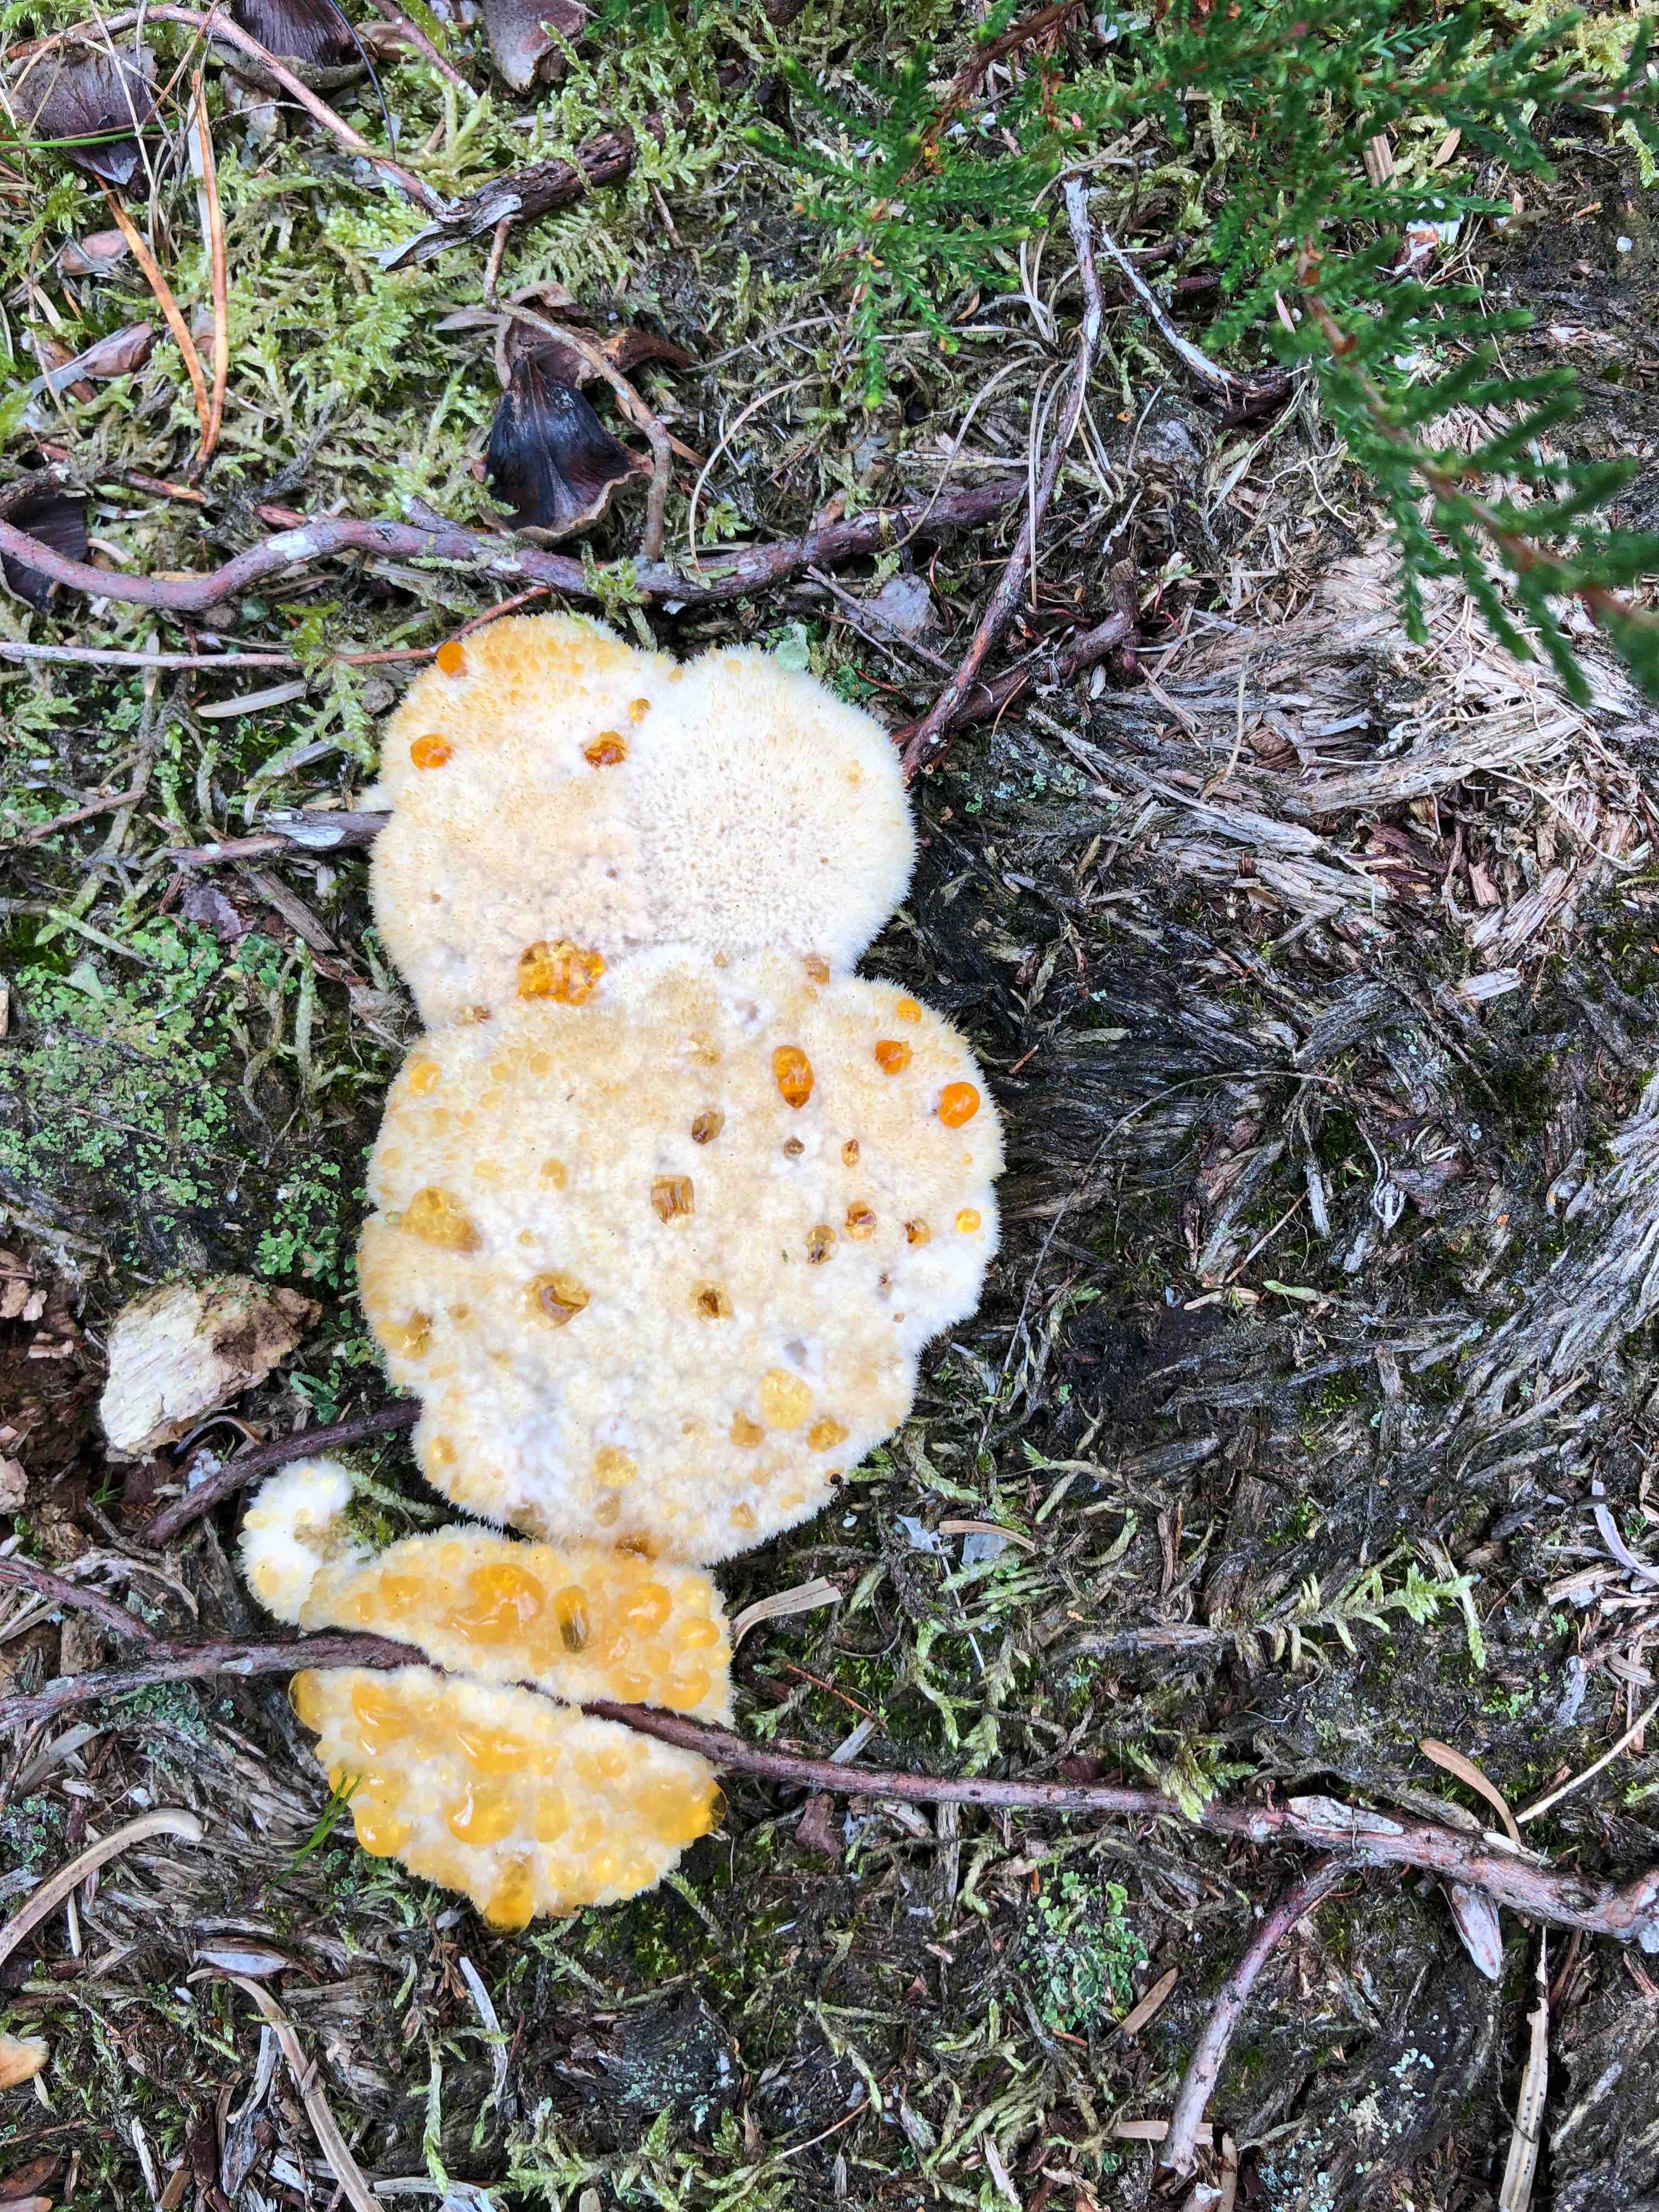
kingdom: Fungi
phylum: Basidiomycota
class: Agaricomycetes
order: Polyporales
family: Dacryobolaceae
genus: Postia
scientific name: Postia ptychogaster
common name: støvende kødporesvamp
